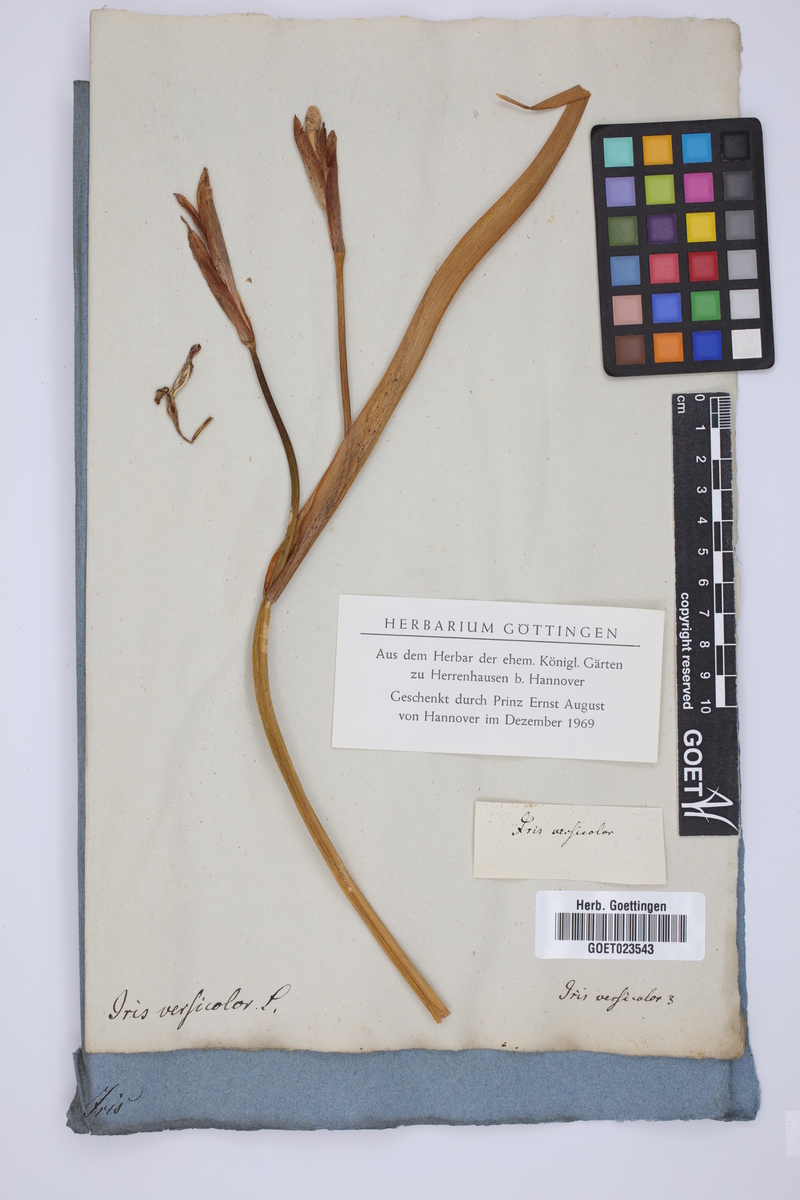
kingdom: Plantae
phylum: Tracheophyta
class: Liliopsida
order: Asparagales
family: Iridaceae
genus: Iris
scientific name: Iris versicolor
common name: Purple iris
